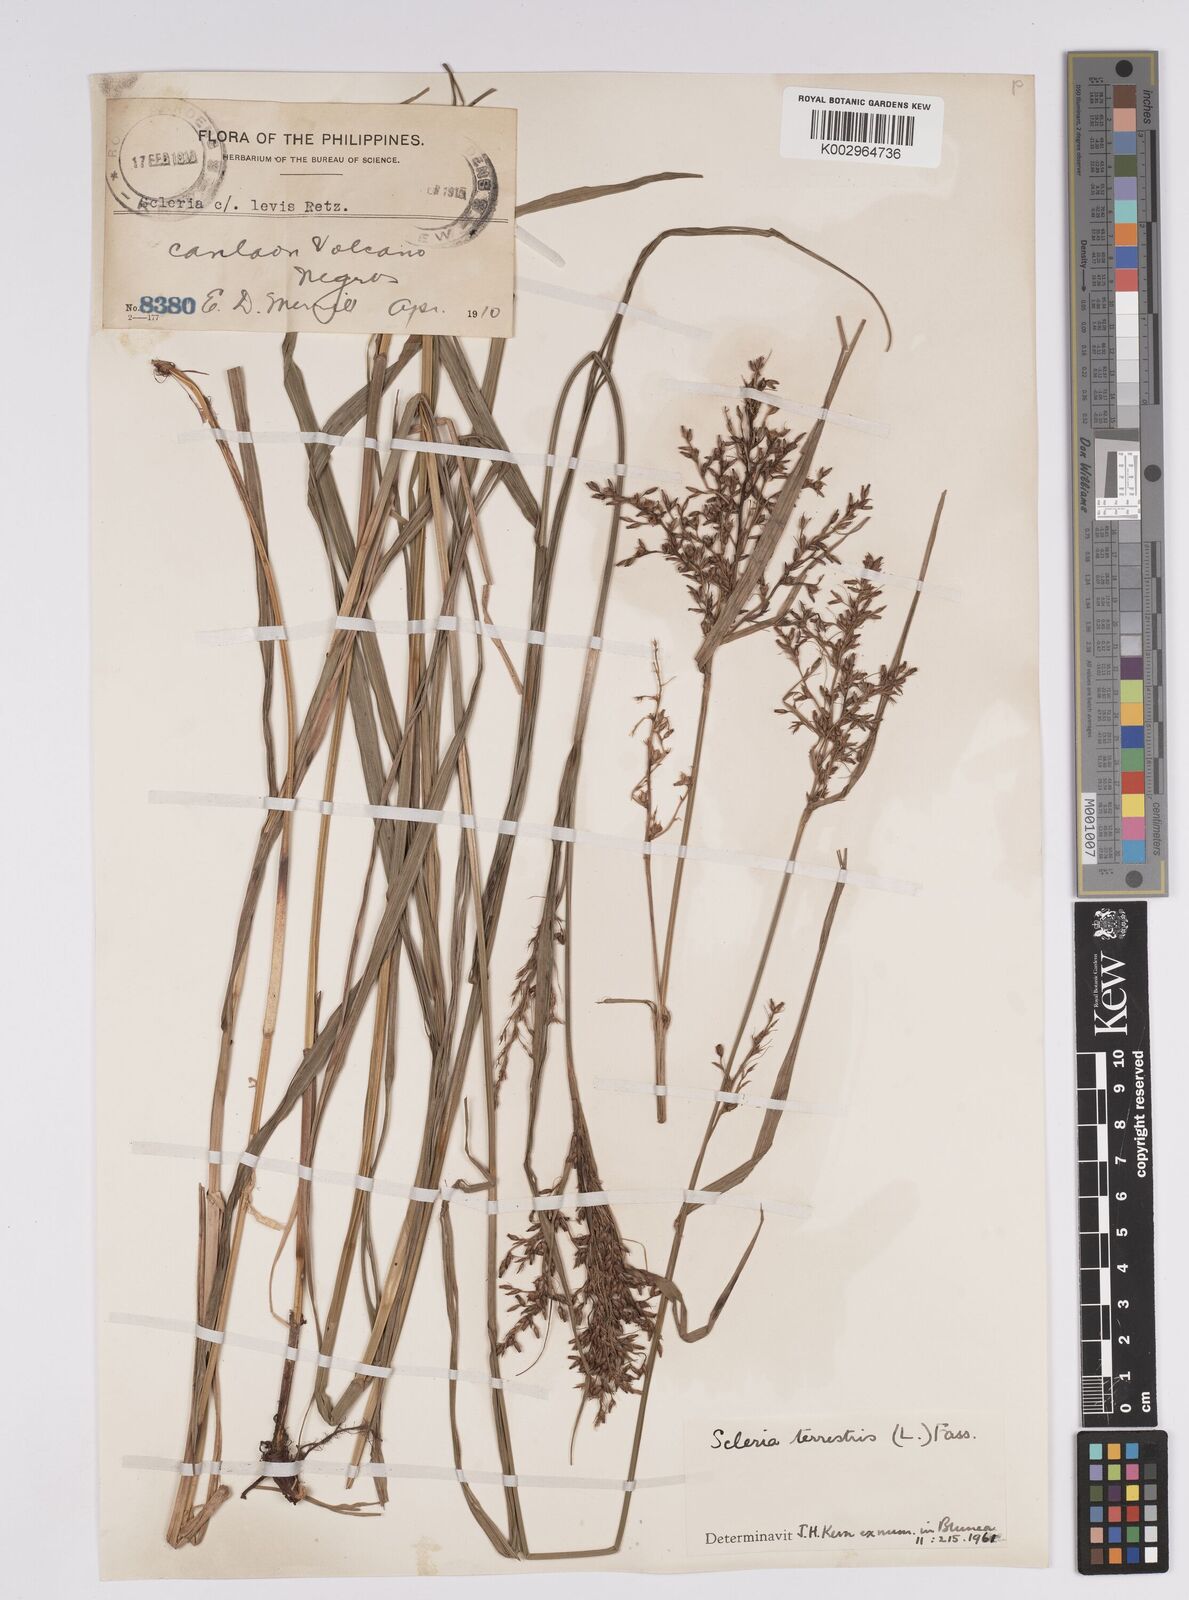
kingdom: Plantae
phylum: Tracheophyta
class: Liliopsida
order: Poales
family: Cyperaceae
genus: Scleria
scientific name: Scleria terrestris
